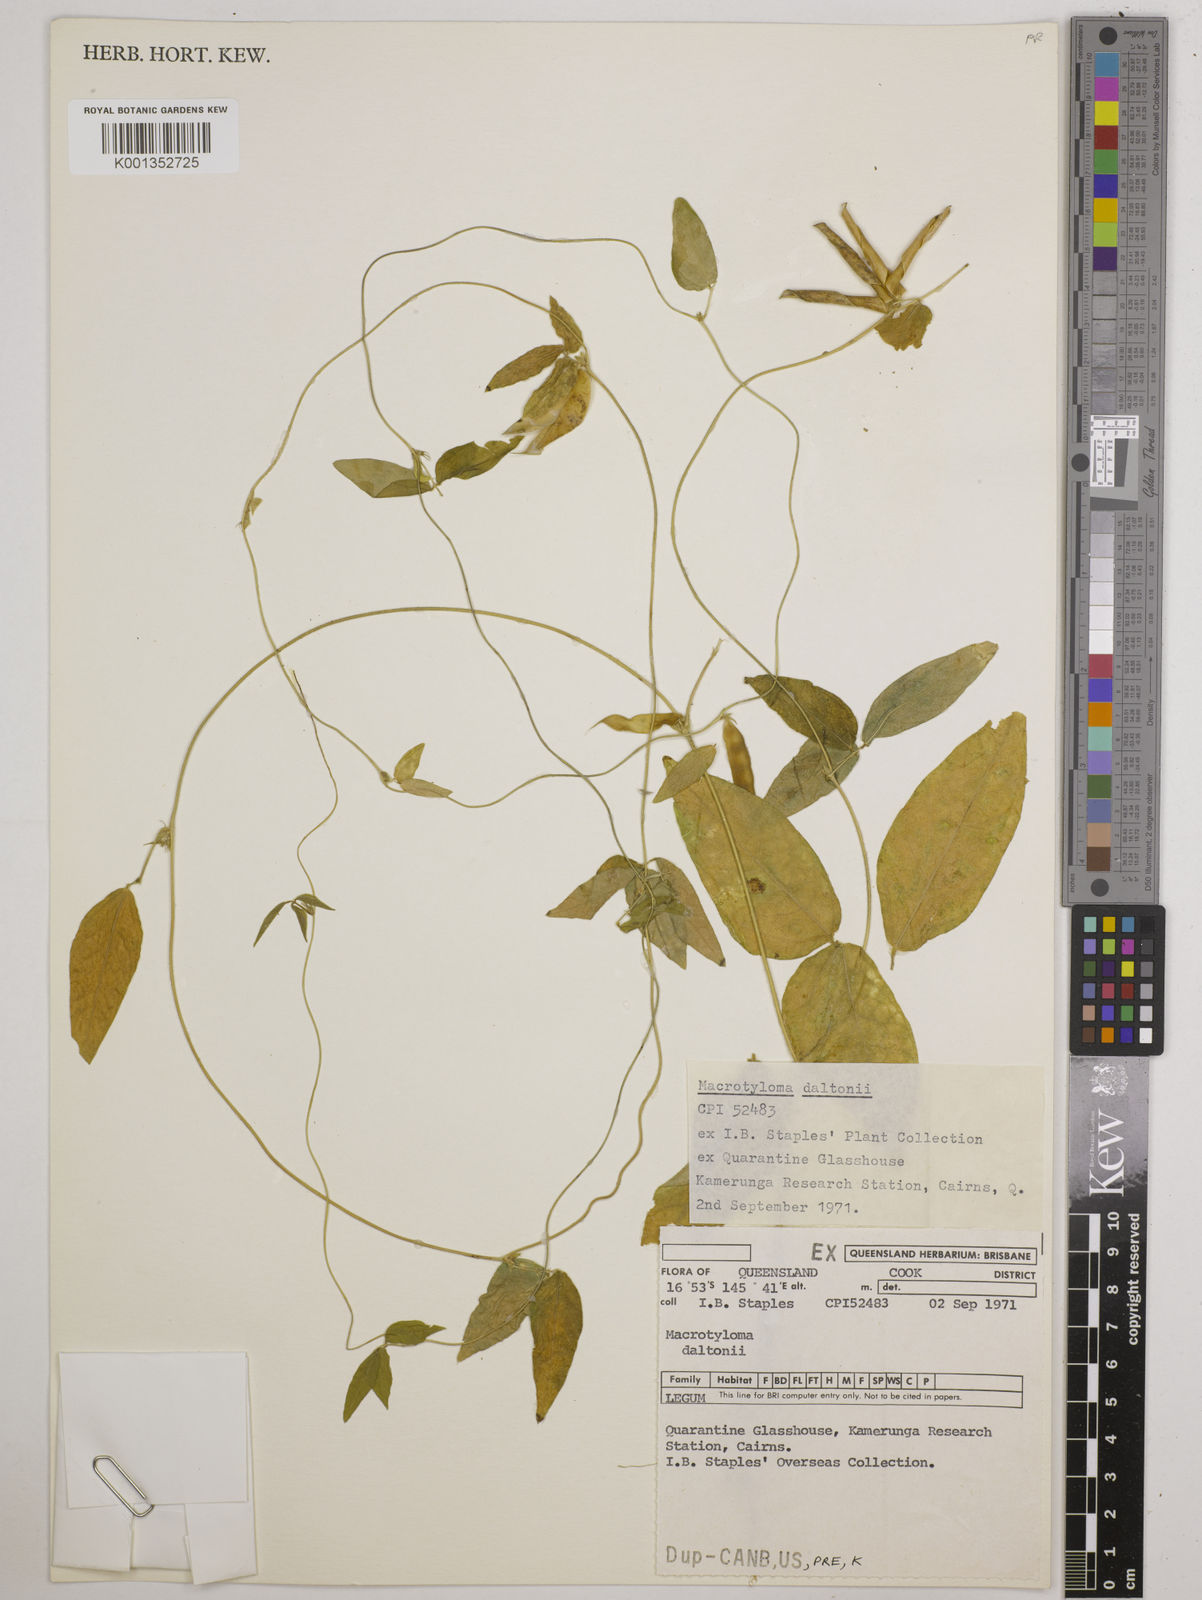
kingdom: Plantae
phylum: Tracheophyta
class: Magnoliopsida
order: Fabales
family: Fabaceae
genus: Macrotyloma
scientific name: Macrotyloma daltonii
